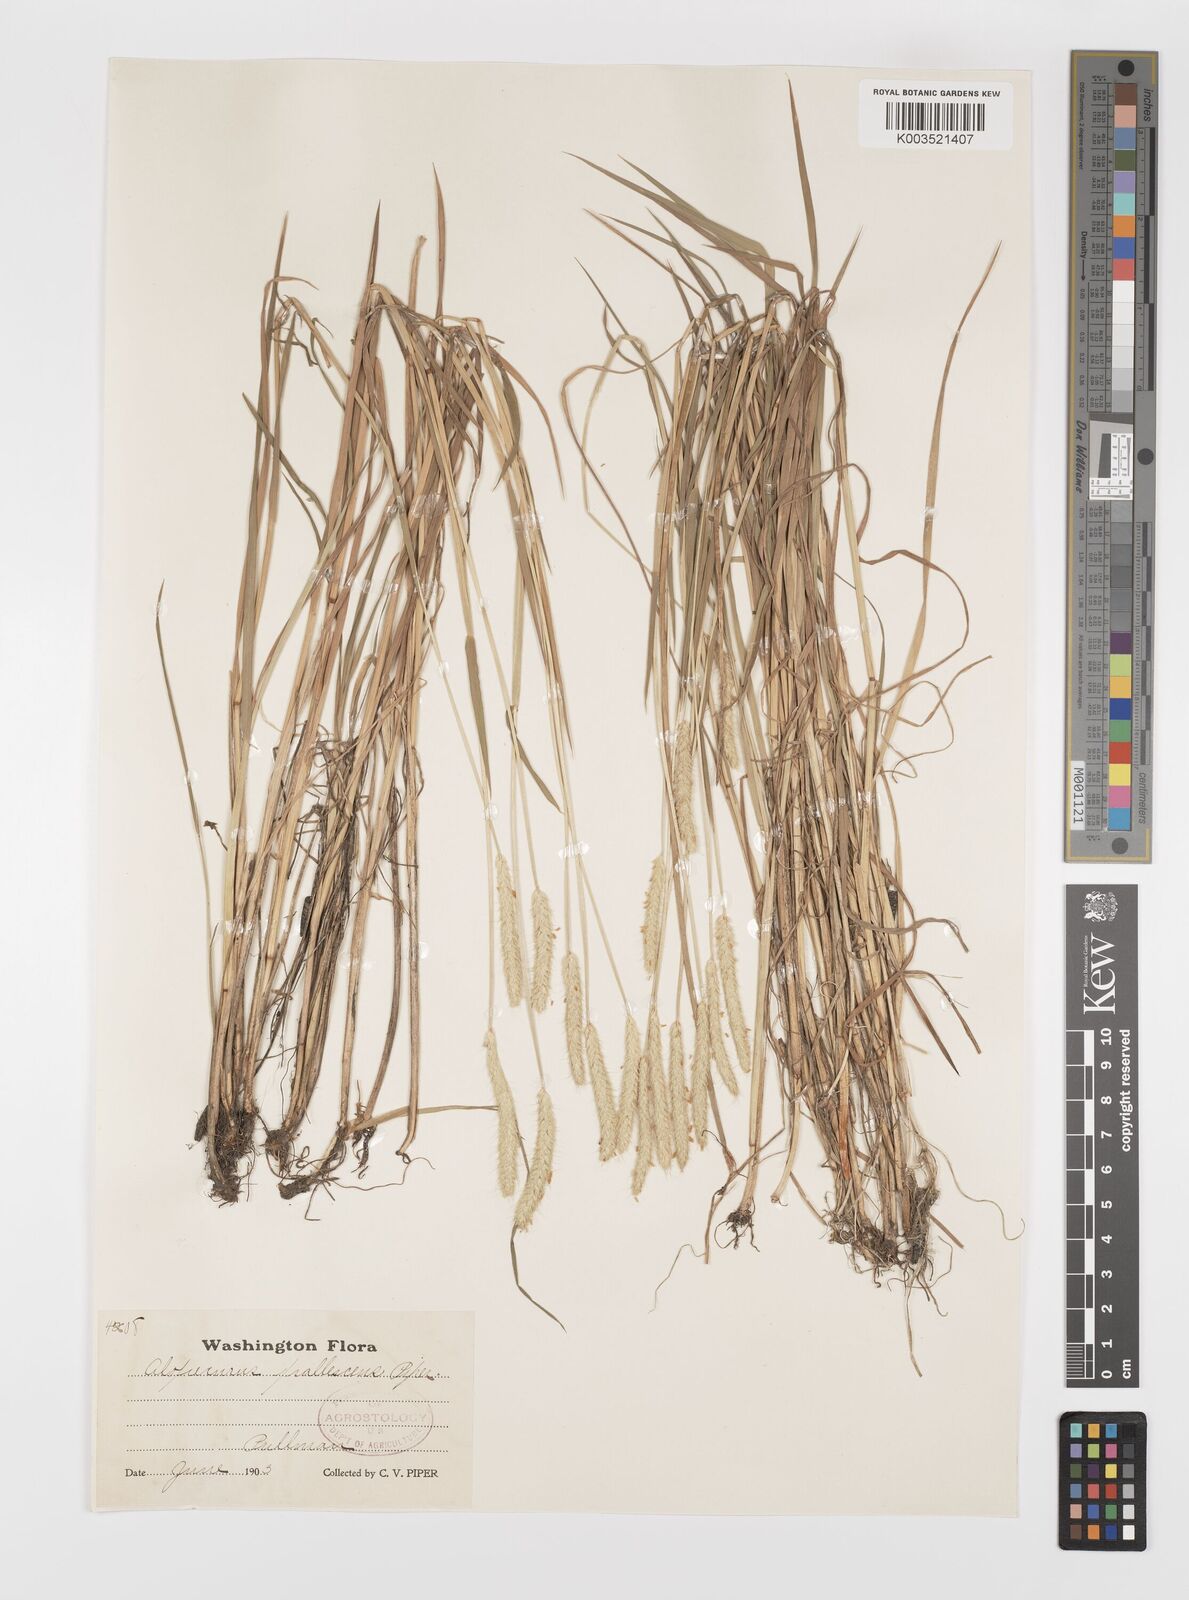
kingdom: Plantae
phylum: Tracheophyta
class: Liliopsida
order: Poales
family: Poaceae
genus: Alopecurus
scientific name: Alopecurus geniculatus
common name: Water foxtail
